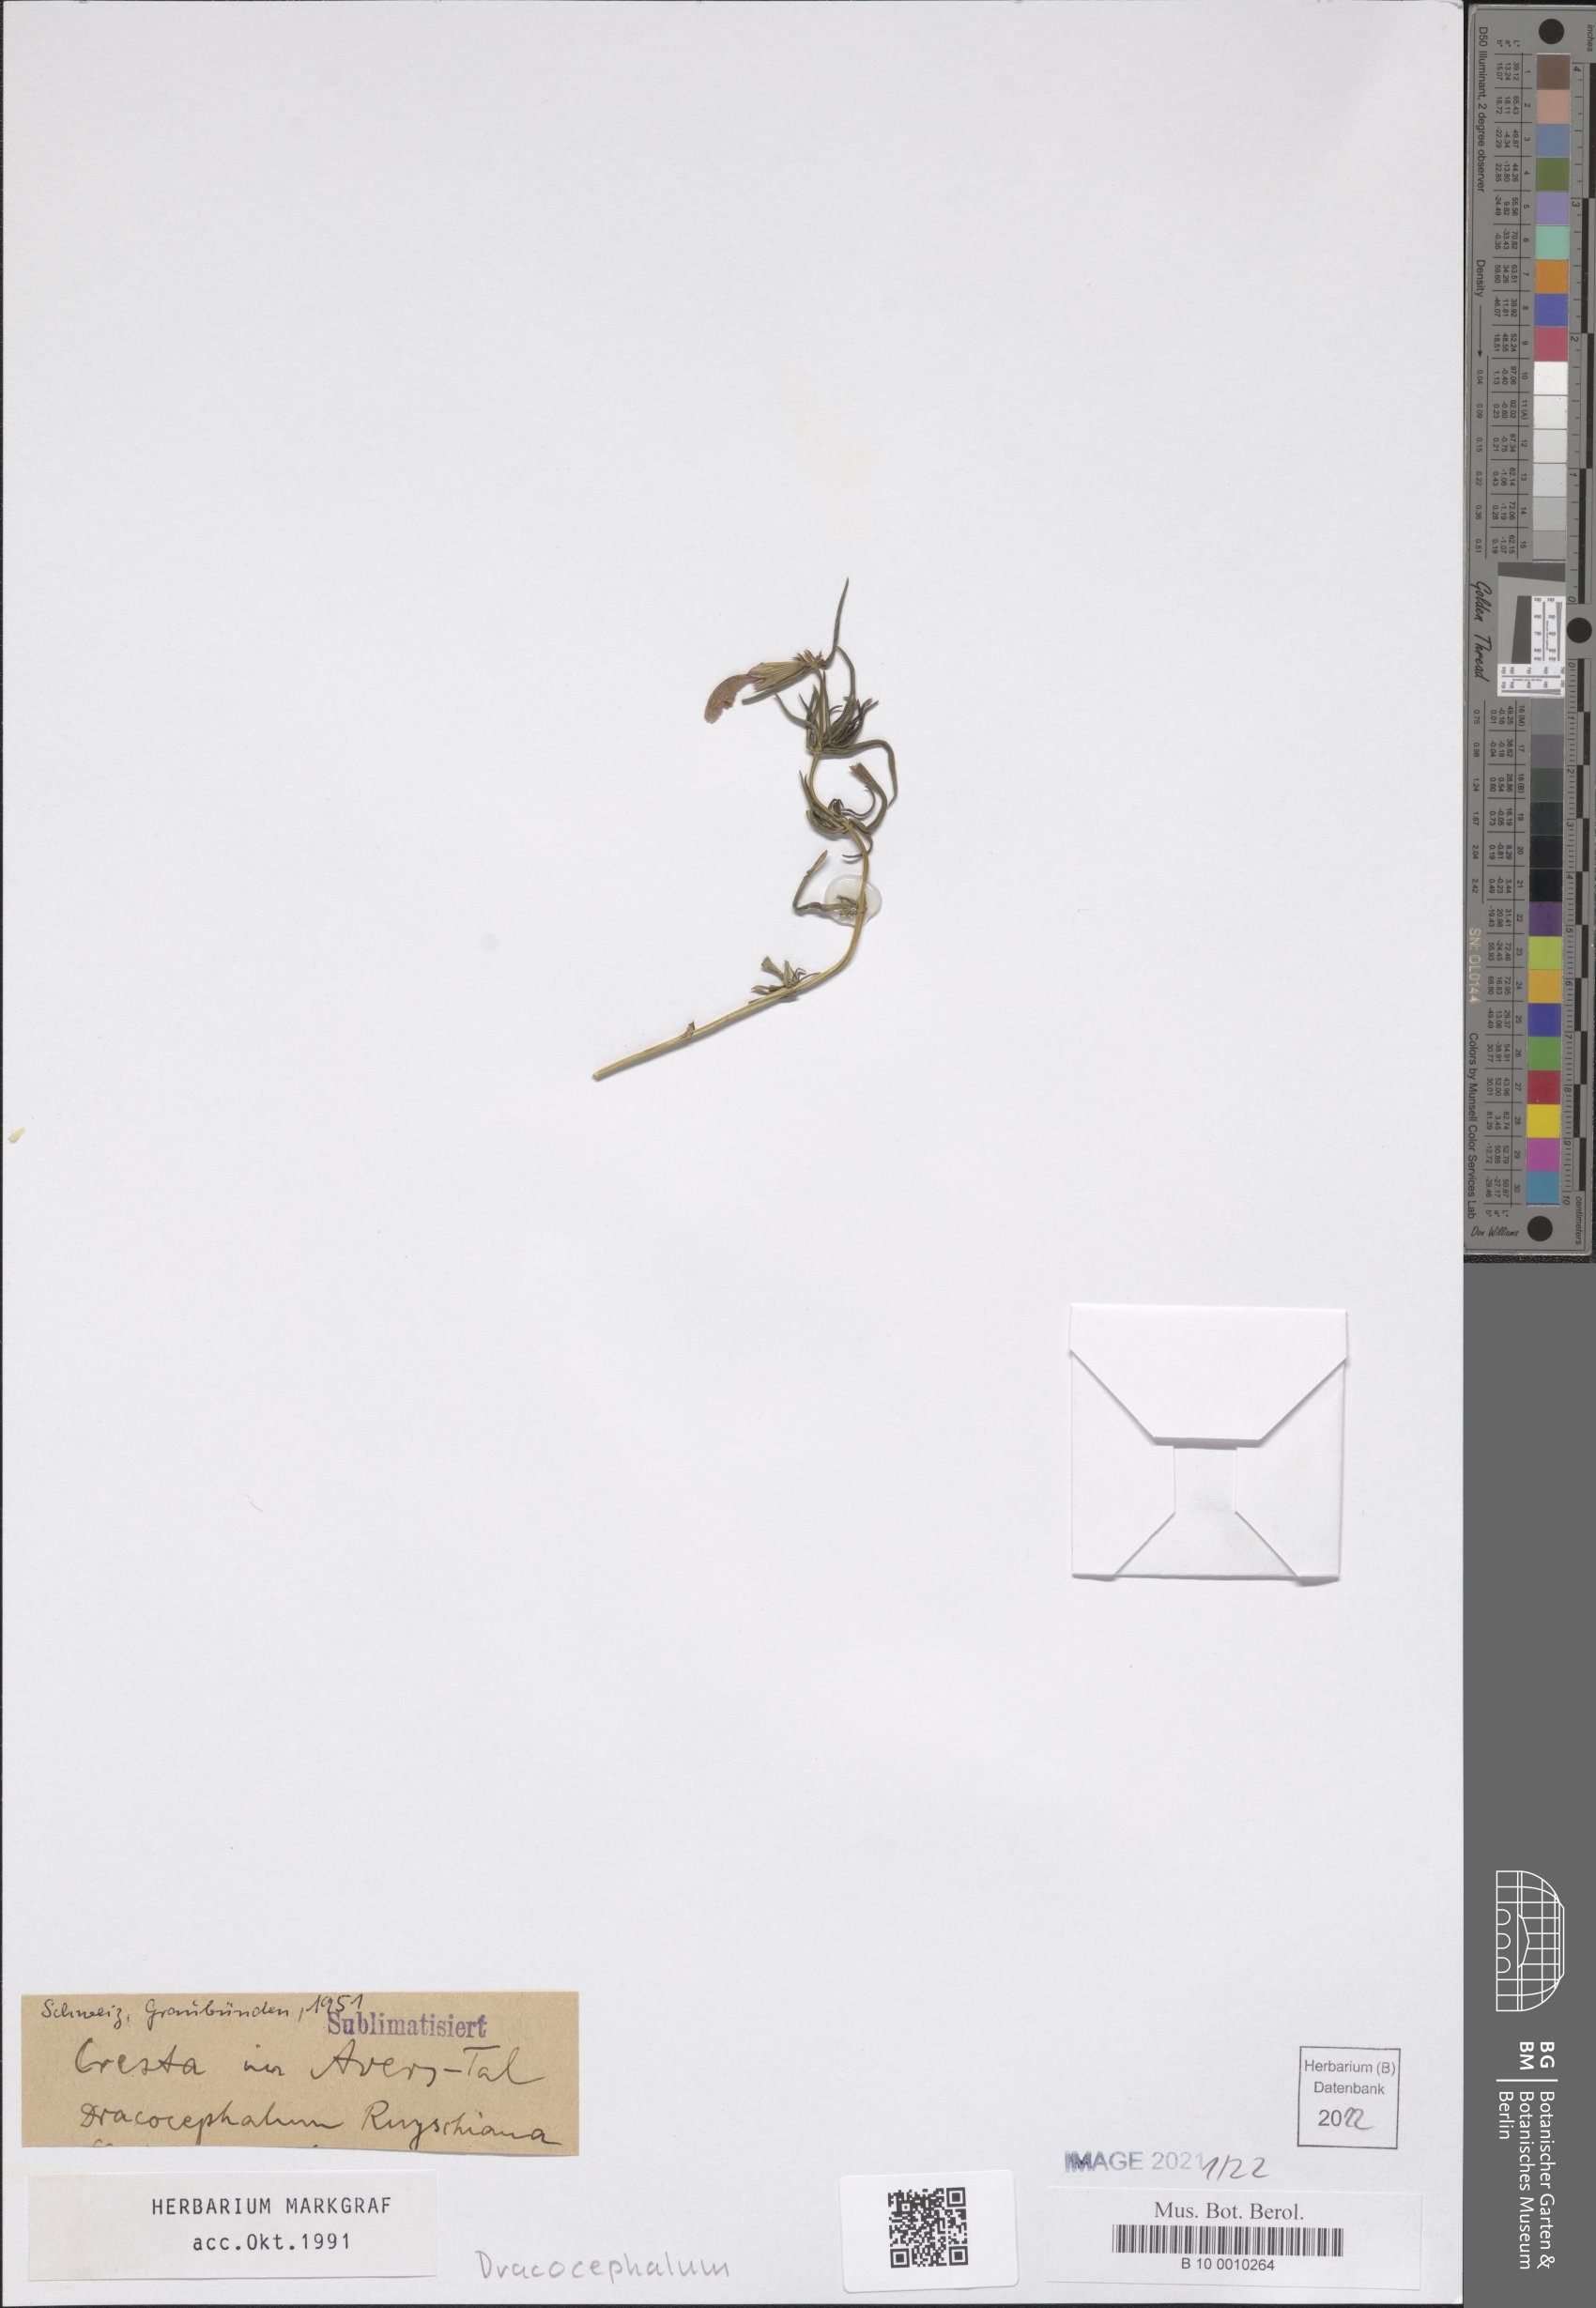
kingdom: Plantae
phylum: Tracheophyta
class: Magnoliopsida
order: Lamiales
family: Lamiaceae
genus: Dracocephalum
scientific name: Dracocephalum ruyschiana
